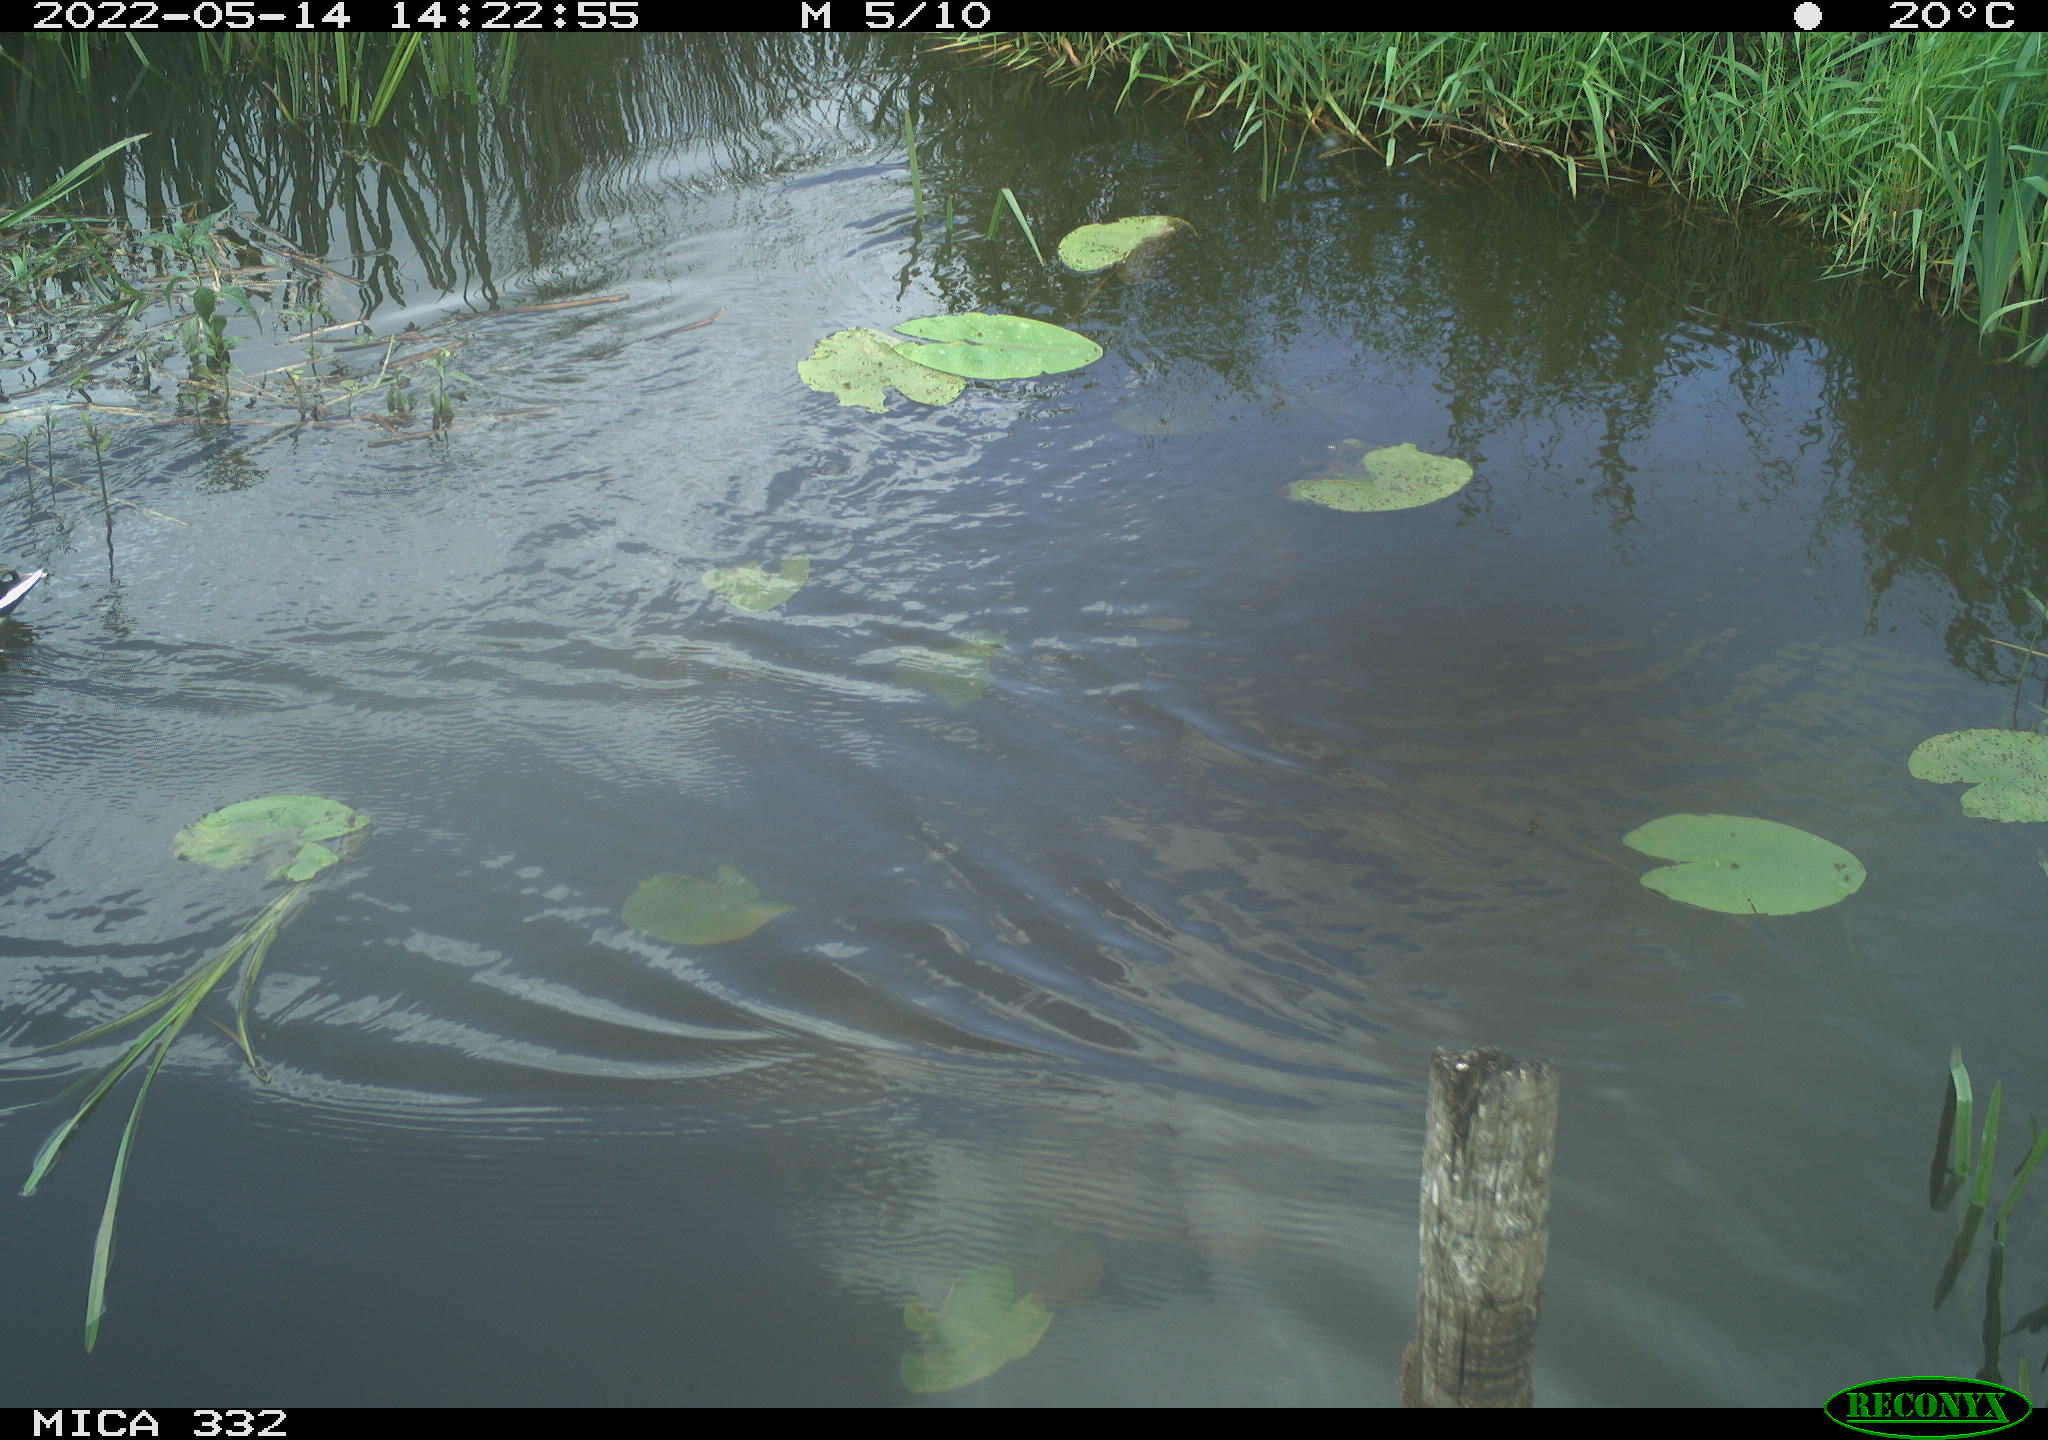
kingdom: Animalia
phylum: Chordata
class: Aves
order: Anseriformes
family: Anatidae
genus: Anas
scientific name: Anas platyrhynchos
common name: Mallard
